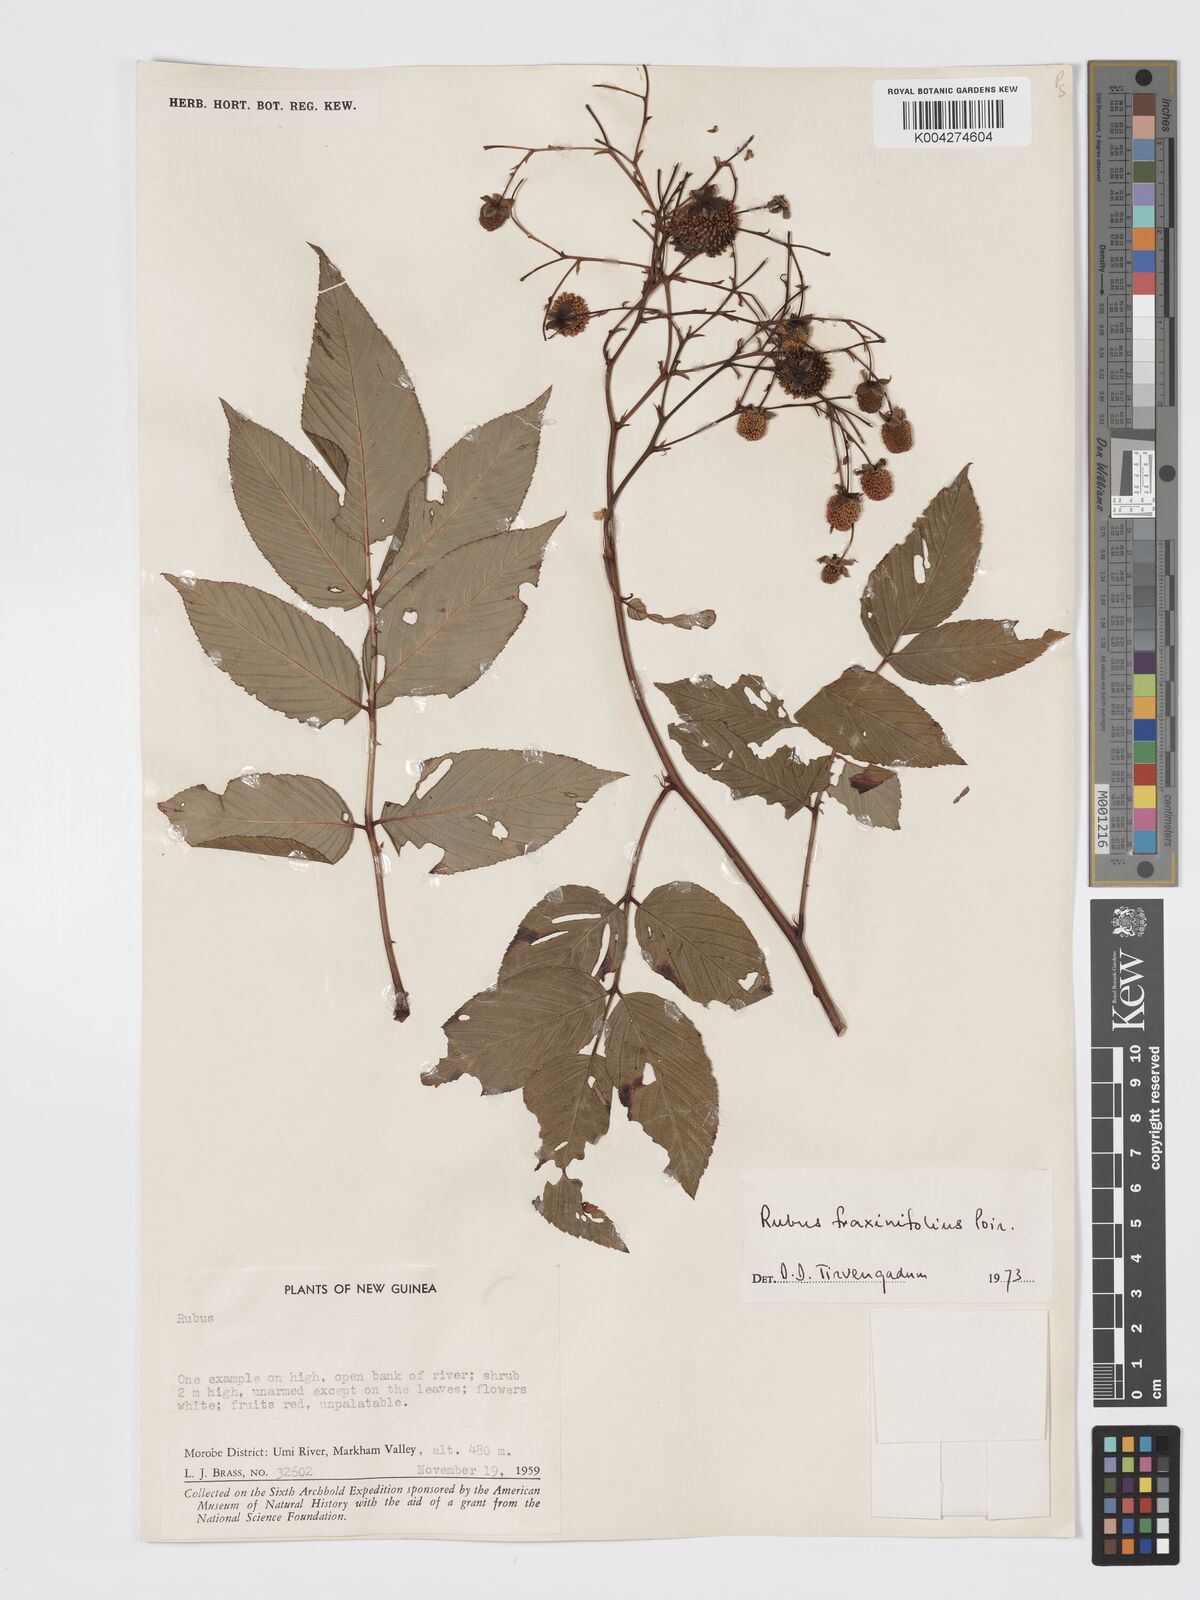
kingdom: Plantae
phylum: Tracheophyta
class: Magnoliopsida
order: Rosales
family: Rosaceae
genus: Rubus
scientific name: Rubus fraxinifolius
